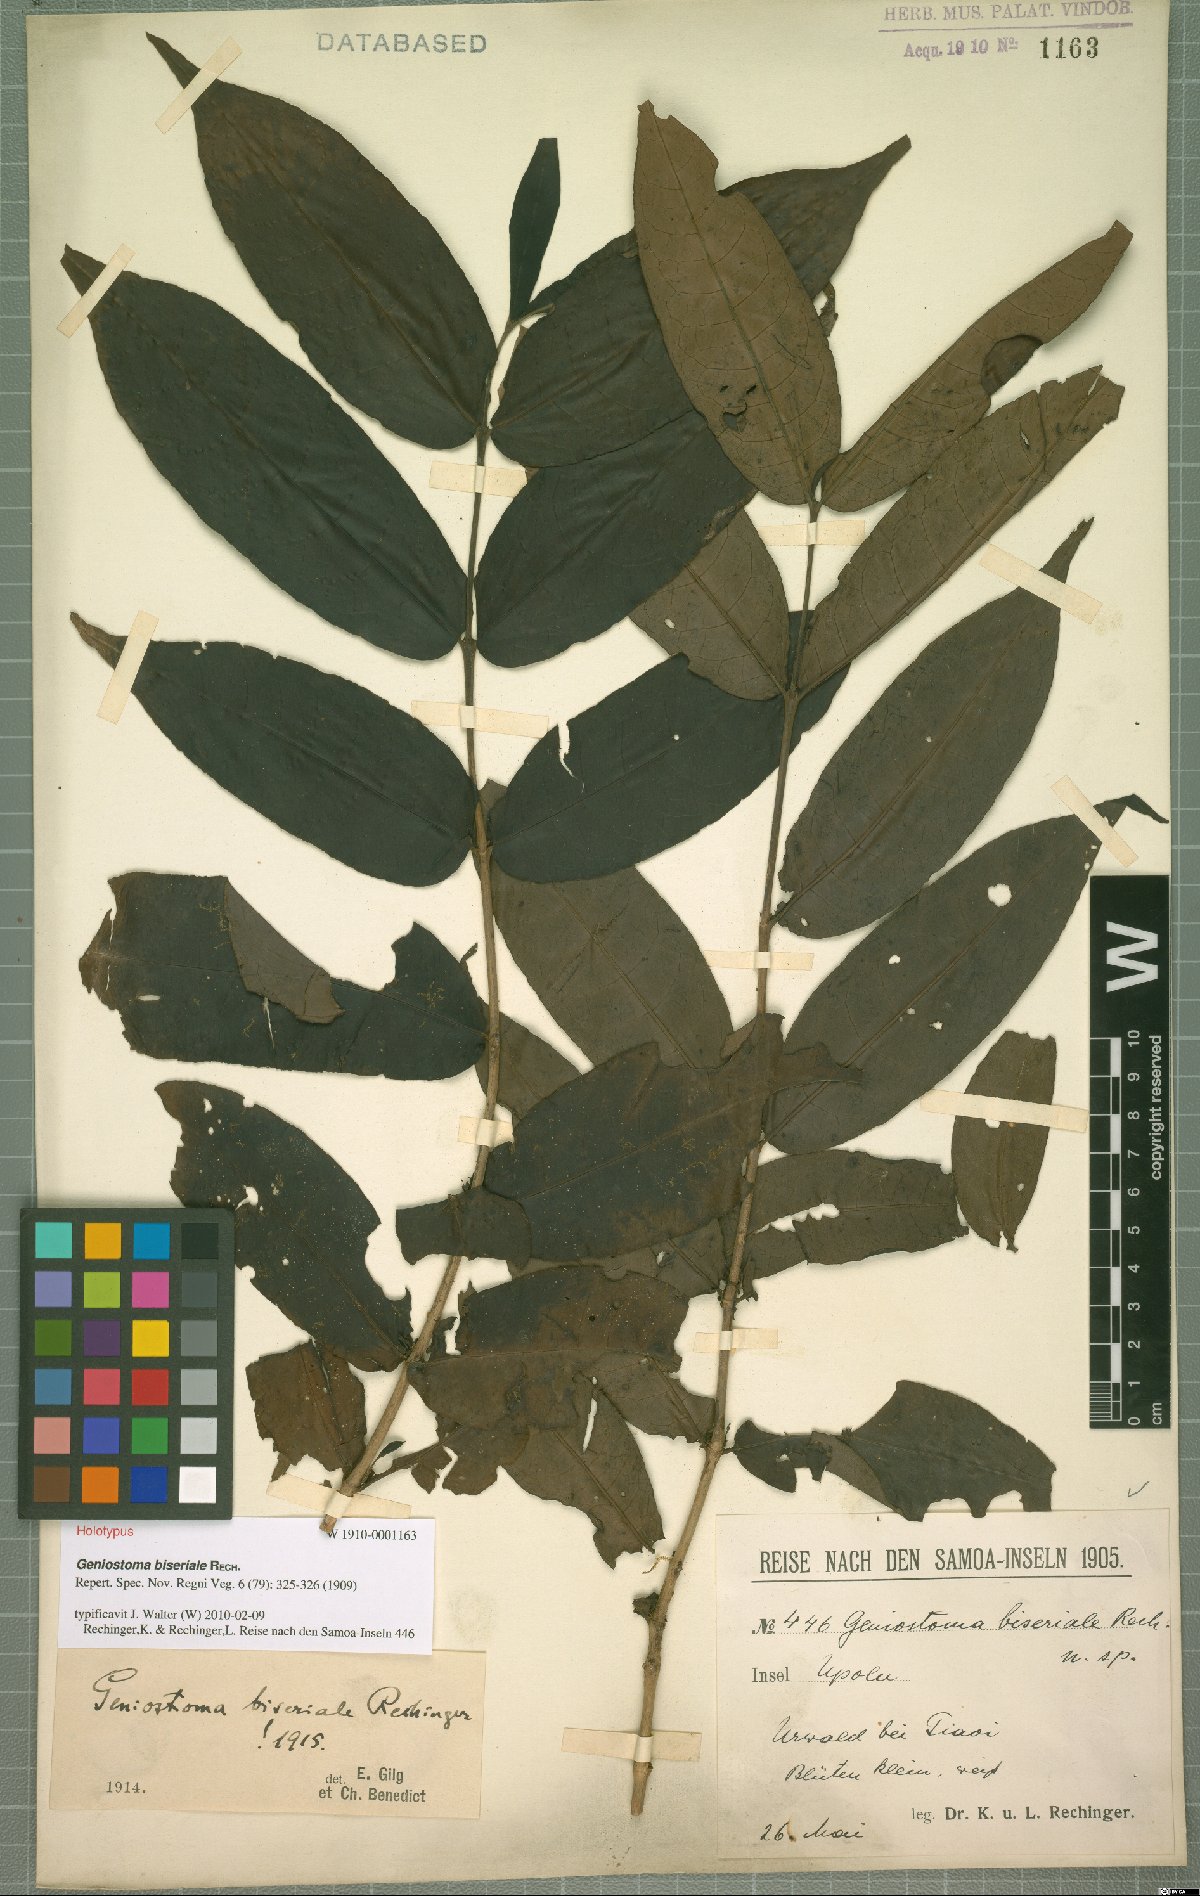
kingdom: Plantae
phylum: Tracheophyta
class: Magnoliopsida
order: Gentianales
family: Loganiaceae
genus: Geniostoma
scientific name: Geniostoma biseriale
